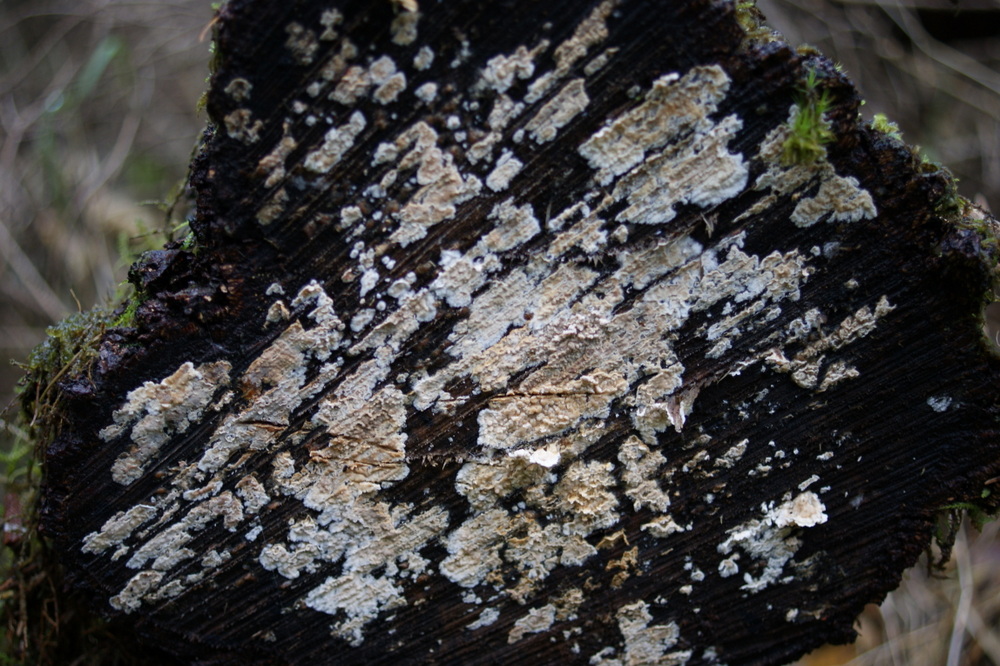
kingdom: Fungi
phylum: Basidiomycota
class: Agaricomycetes
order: Agaricales
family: Physalacriaceae
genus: Cylindrobasidium
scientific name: Cylindrobasidium evolvens
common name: sprækkehinde
